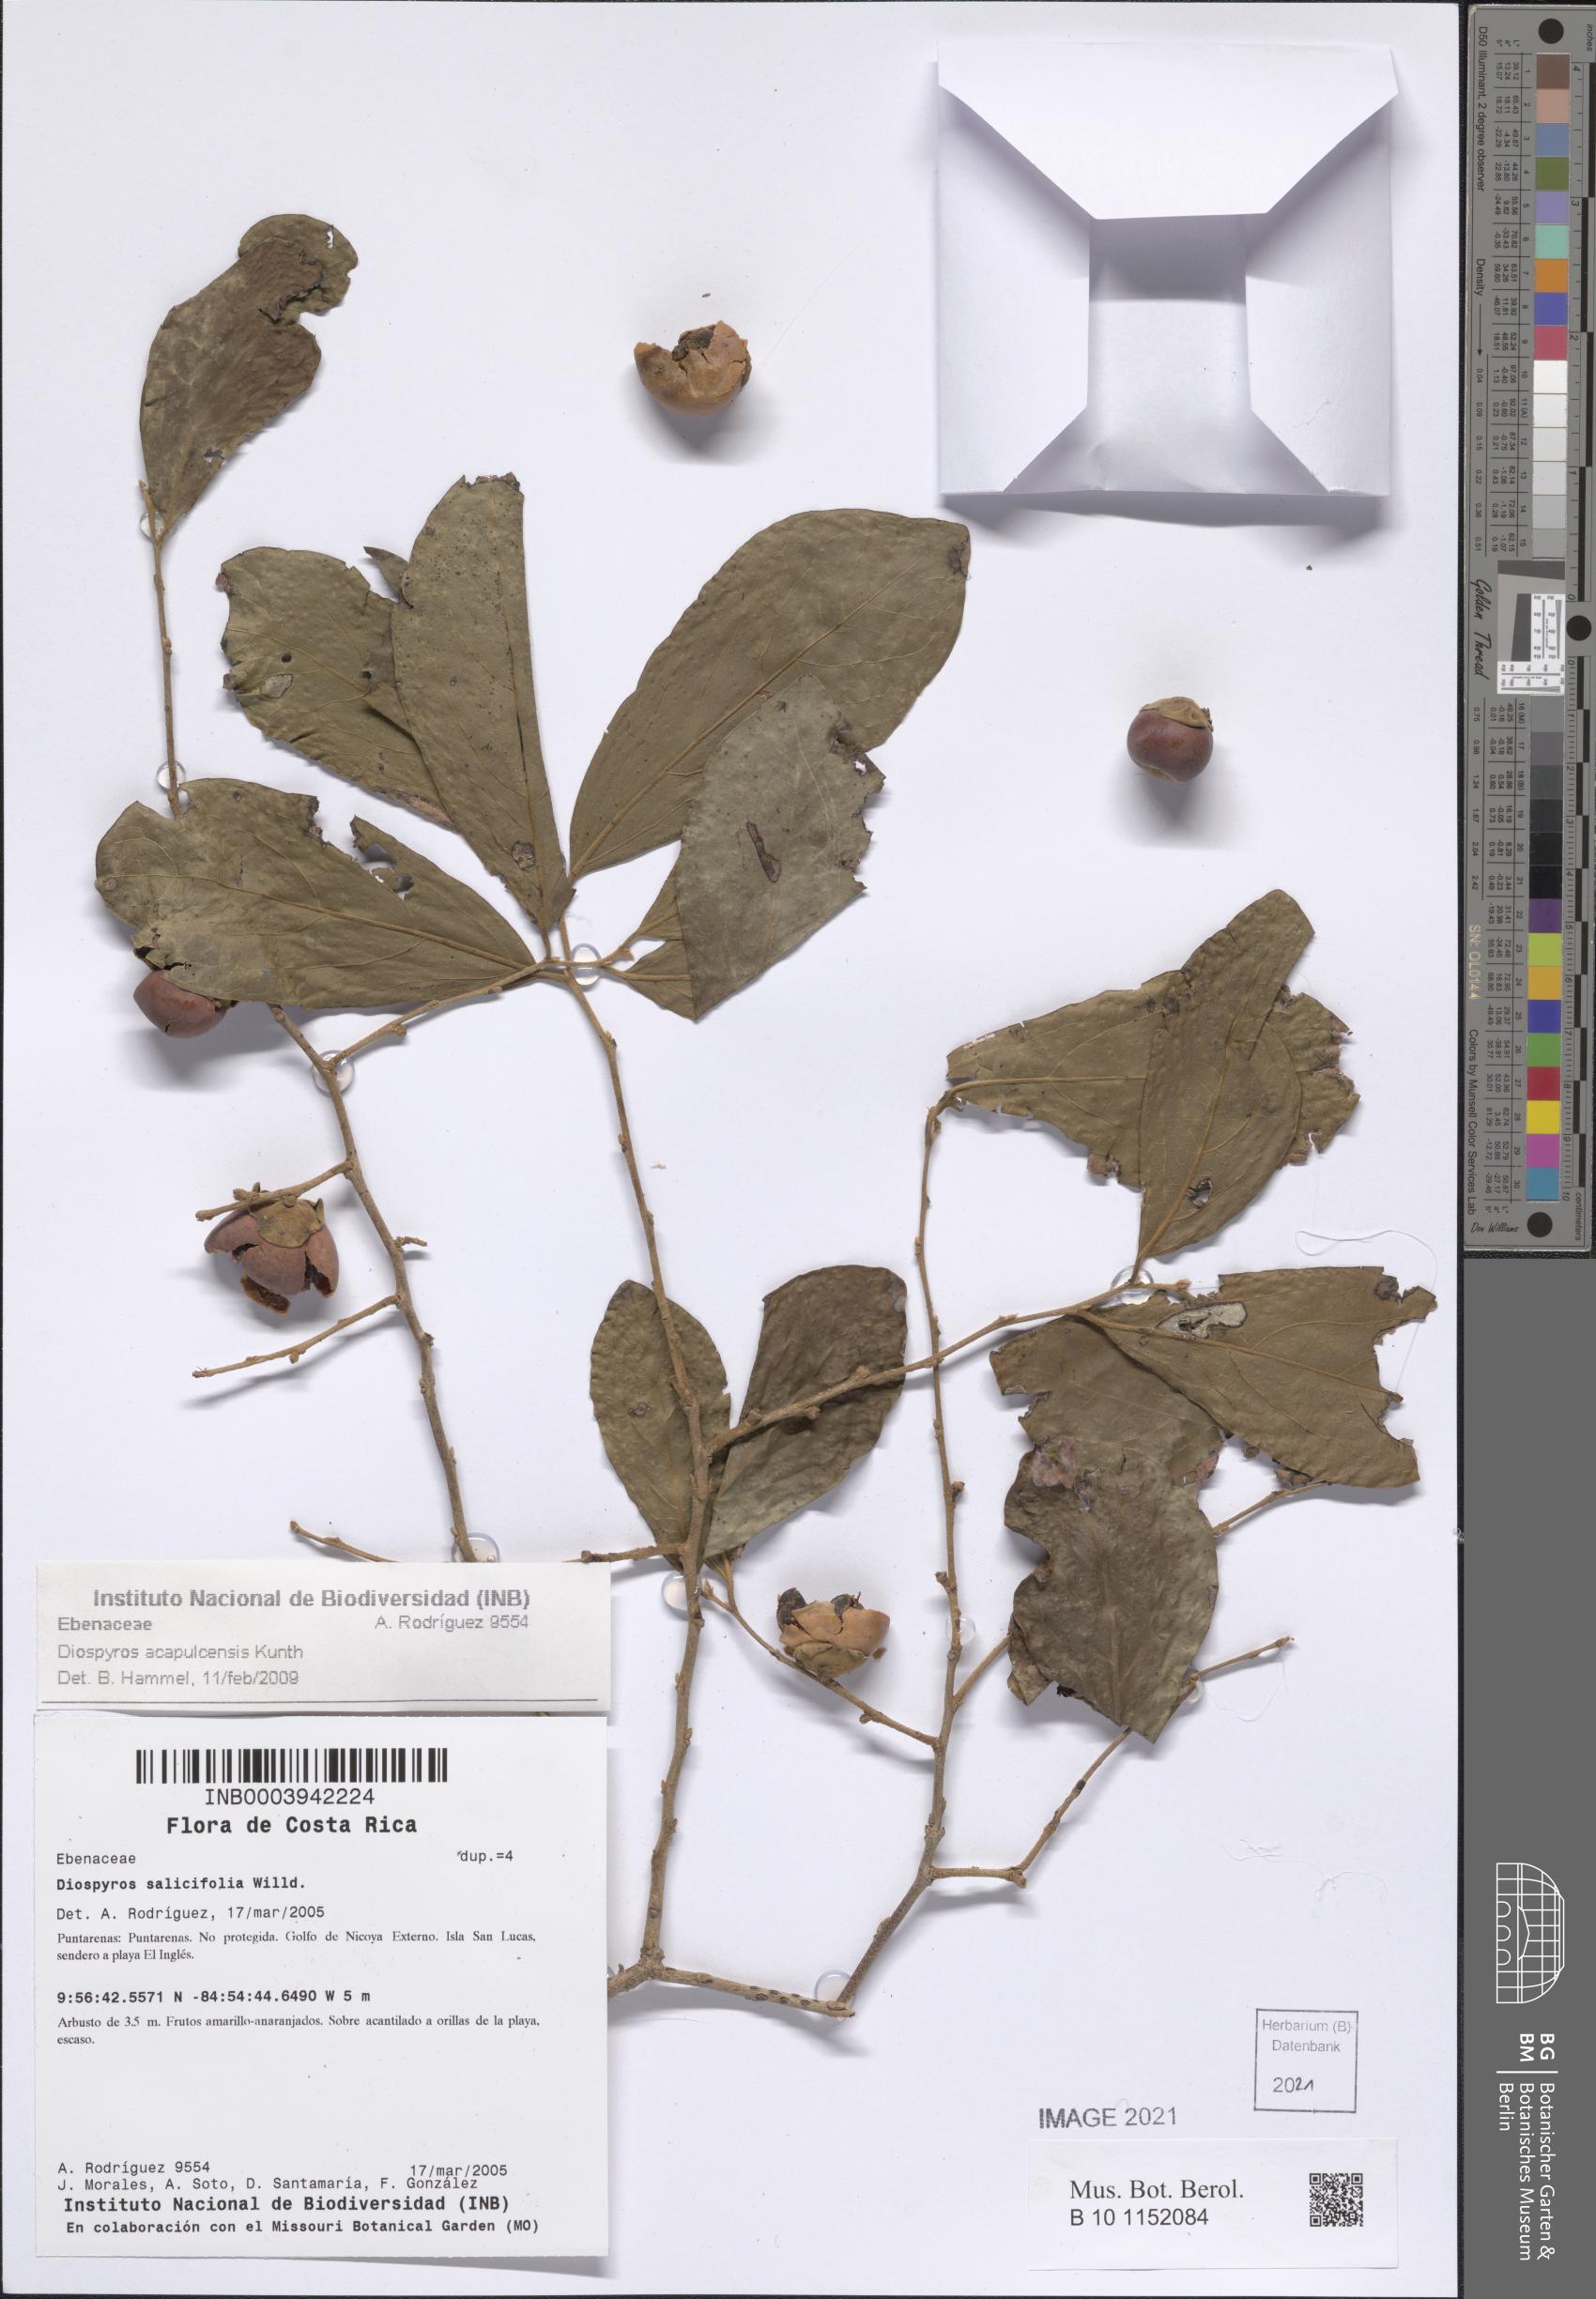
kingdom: Plantae
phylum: Tracheophyta
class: Magnoliopsida
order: Ericales
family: Ebenaceae
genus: Diospyros
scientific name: Diospyros acapulcensis
